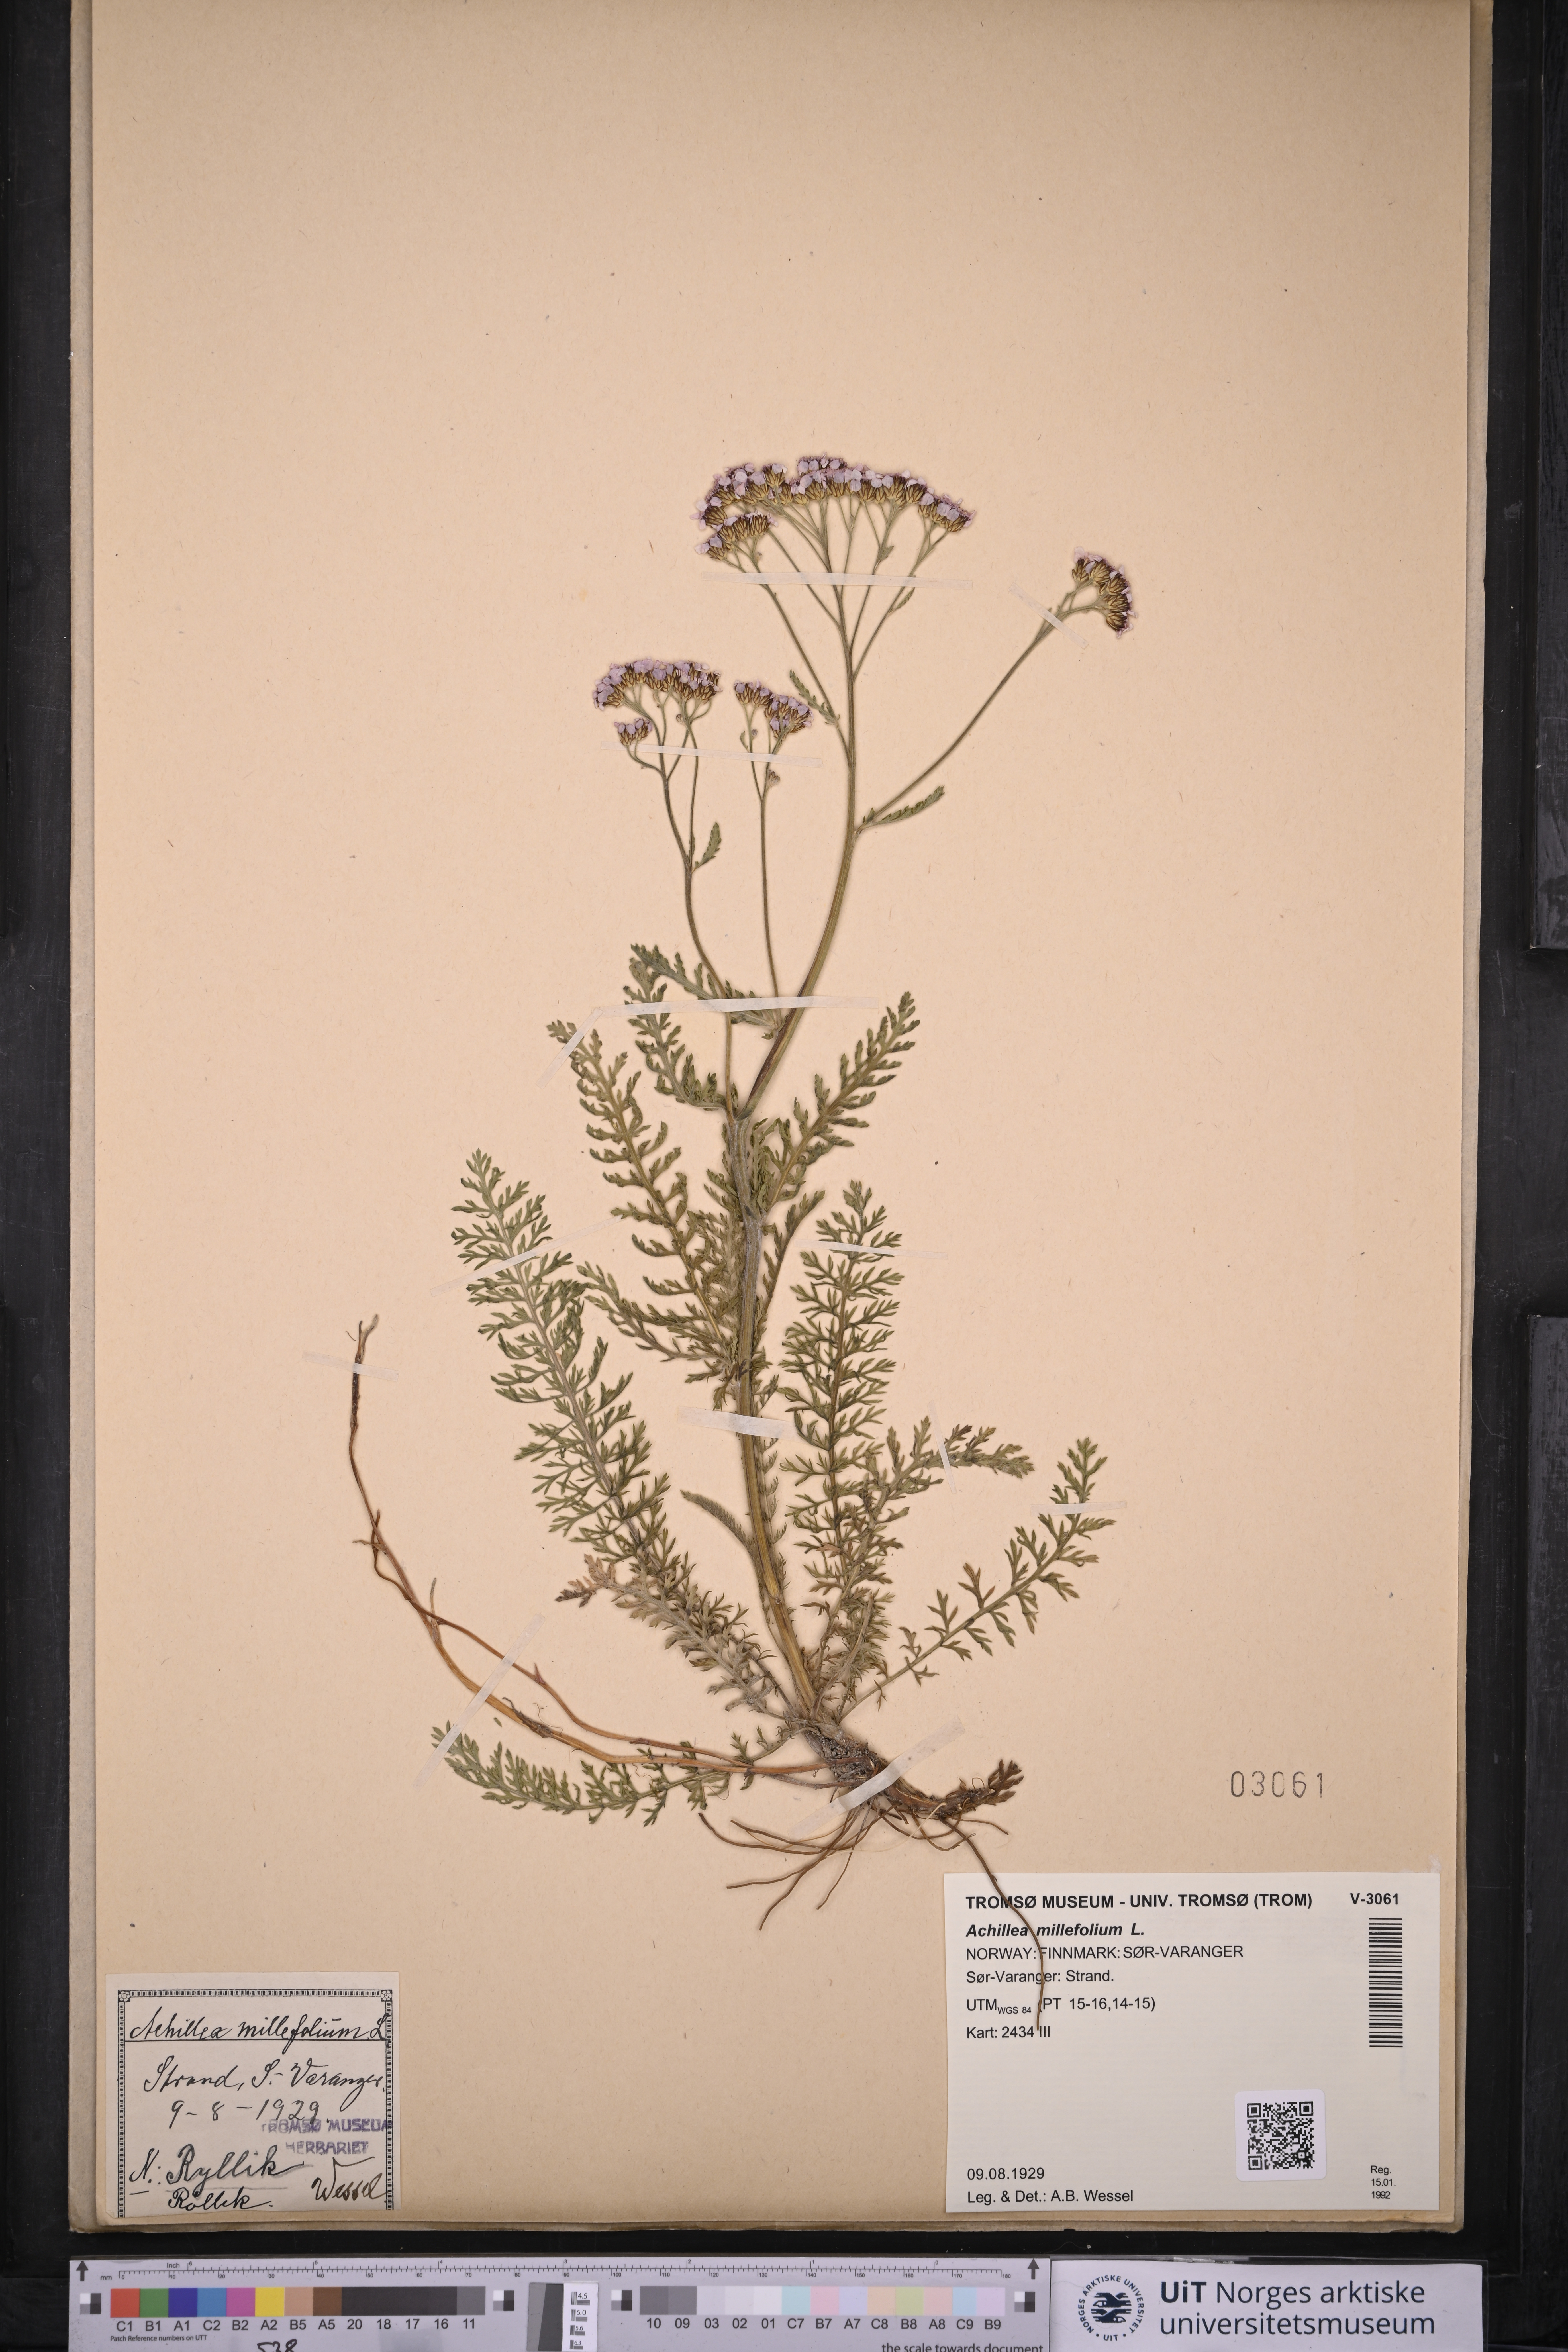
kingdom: Plantae
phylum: Tracheophyta
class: Magnoliopsida
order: Asterales
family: Asteraceae
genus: Achillea
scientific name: Achillea millefolium
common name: Yarrow
